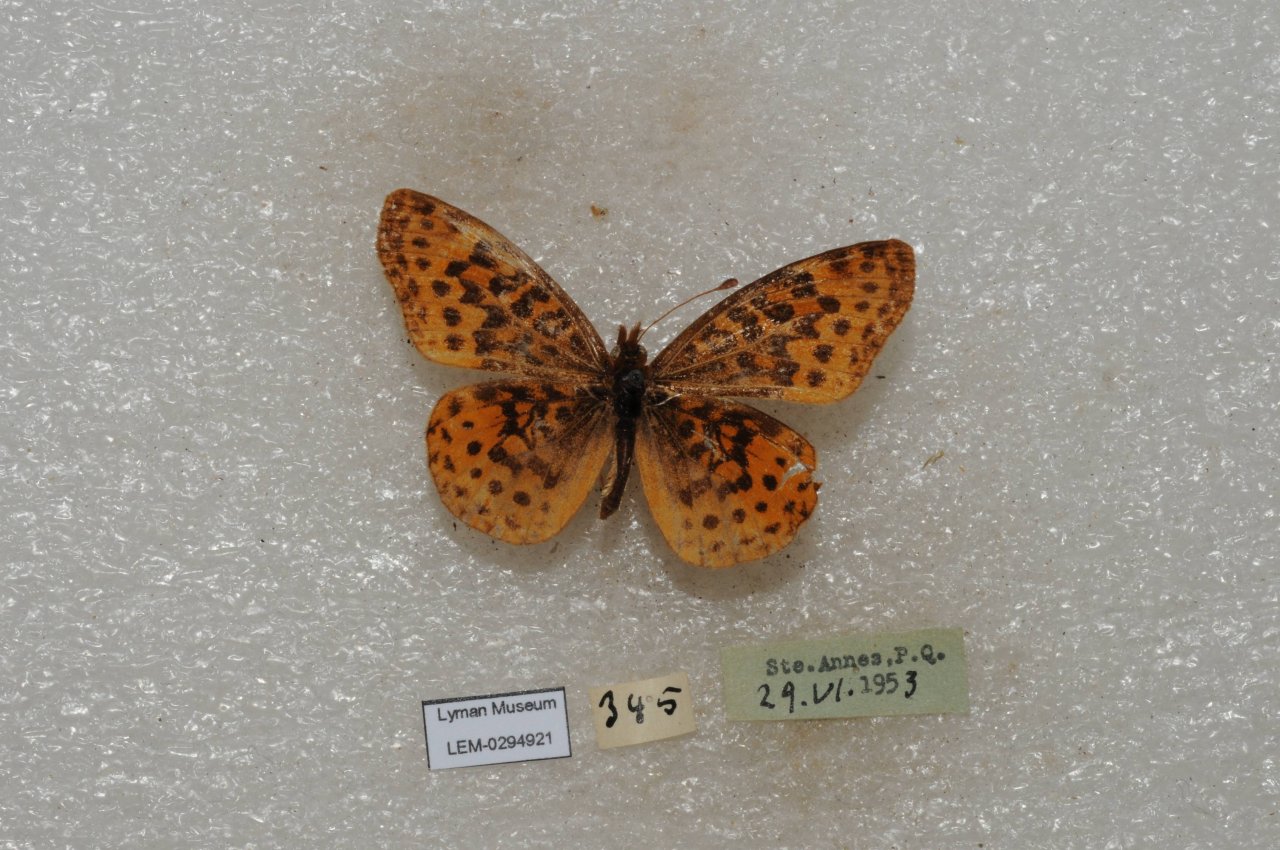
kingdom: Animalia
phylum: Arthropoda
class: Insecta
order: Lepidoptera
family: Nymphalidae
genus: Clossiana
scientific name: Clossiana toddi
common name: Meadow Fritillary
